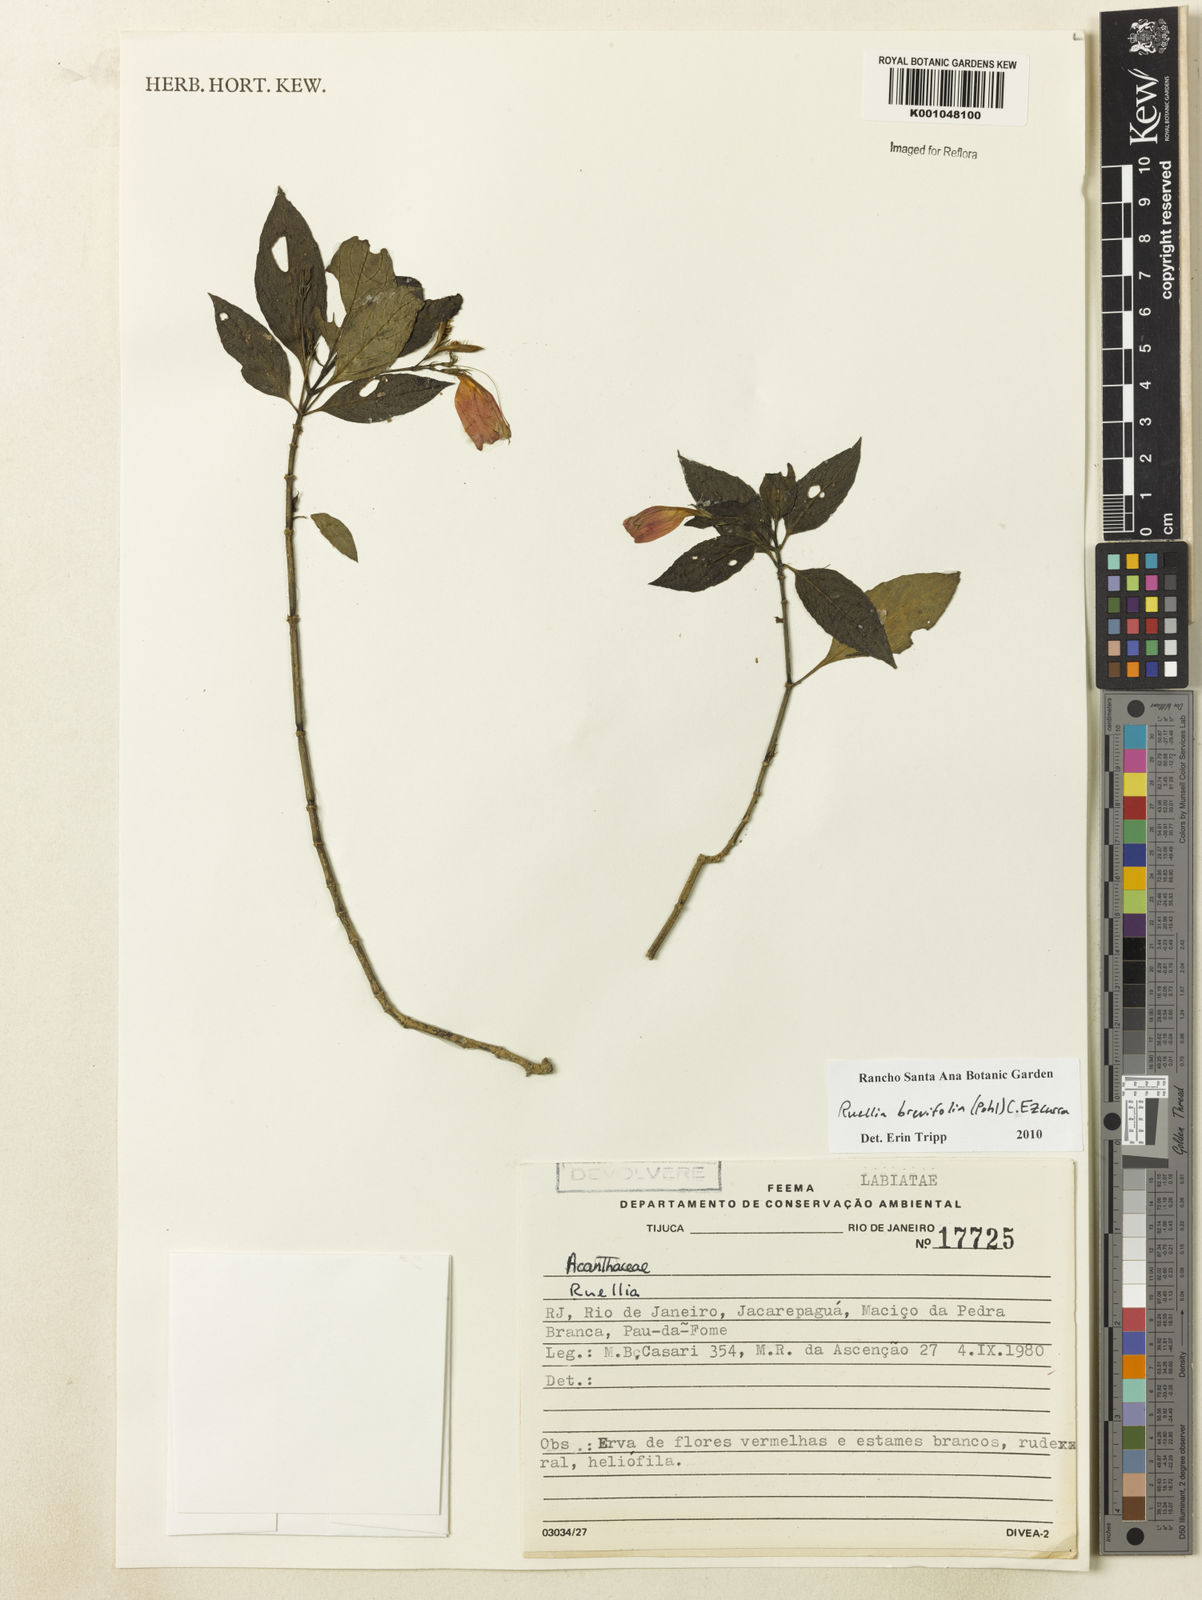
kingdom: Plantae
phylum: Tracheophyta
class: Magnoliopsida
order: Lamiales
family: Acanthaceae
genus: Ruellia
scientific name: Ruellia brevifolia
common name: Tropical wild petunia
